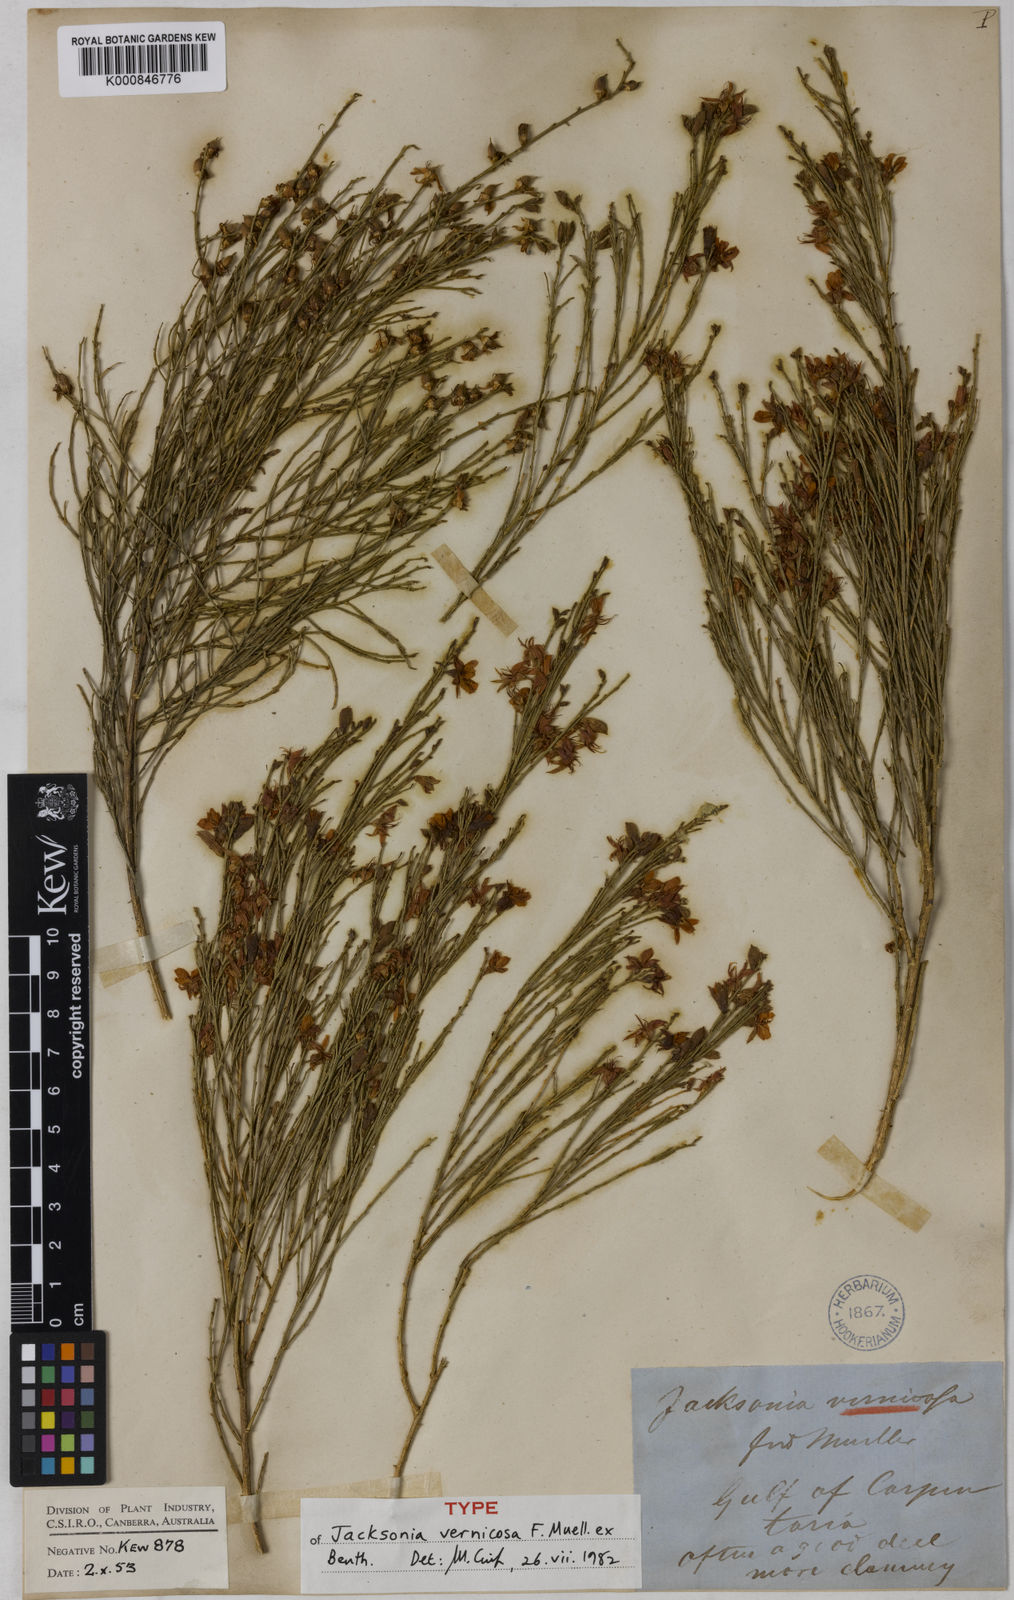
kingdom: Plantae
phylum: Tracheophyta
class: Magnoliopsida
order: Fabales
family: Fabaceae
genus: Jacksonia
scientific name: Jacksonia vernicosa
